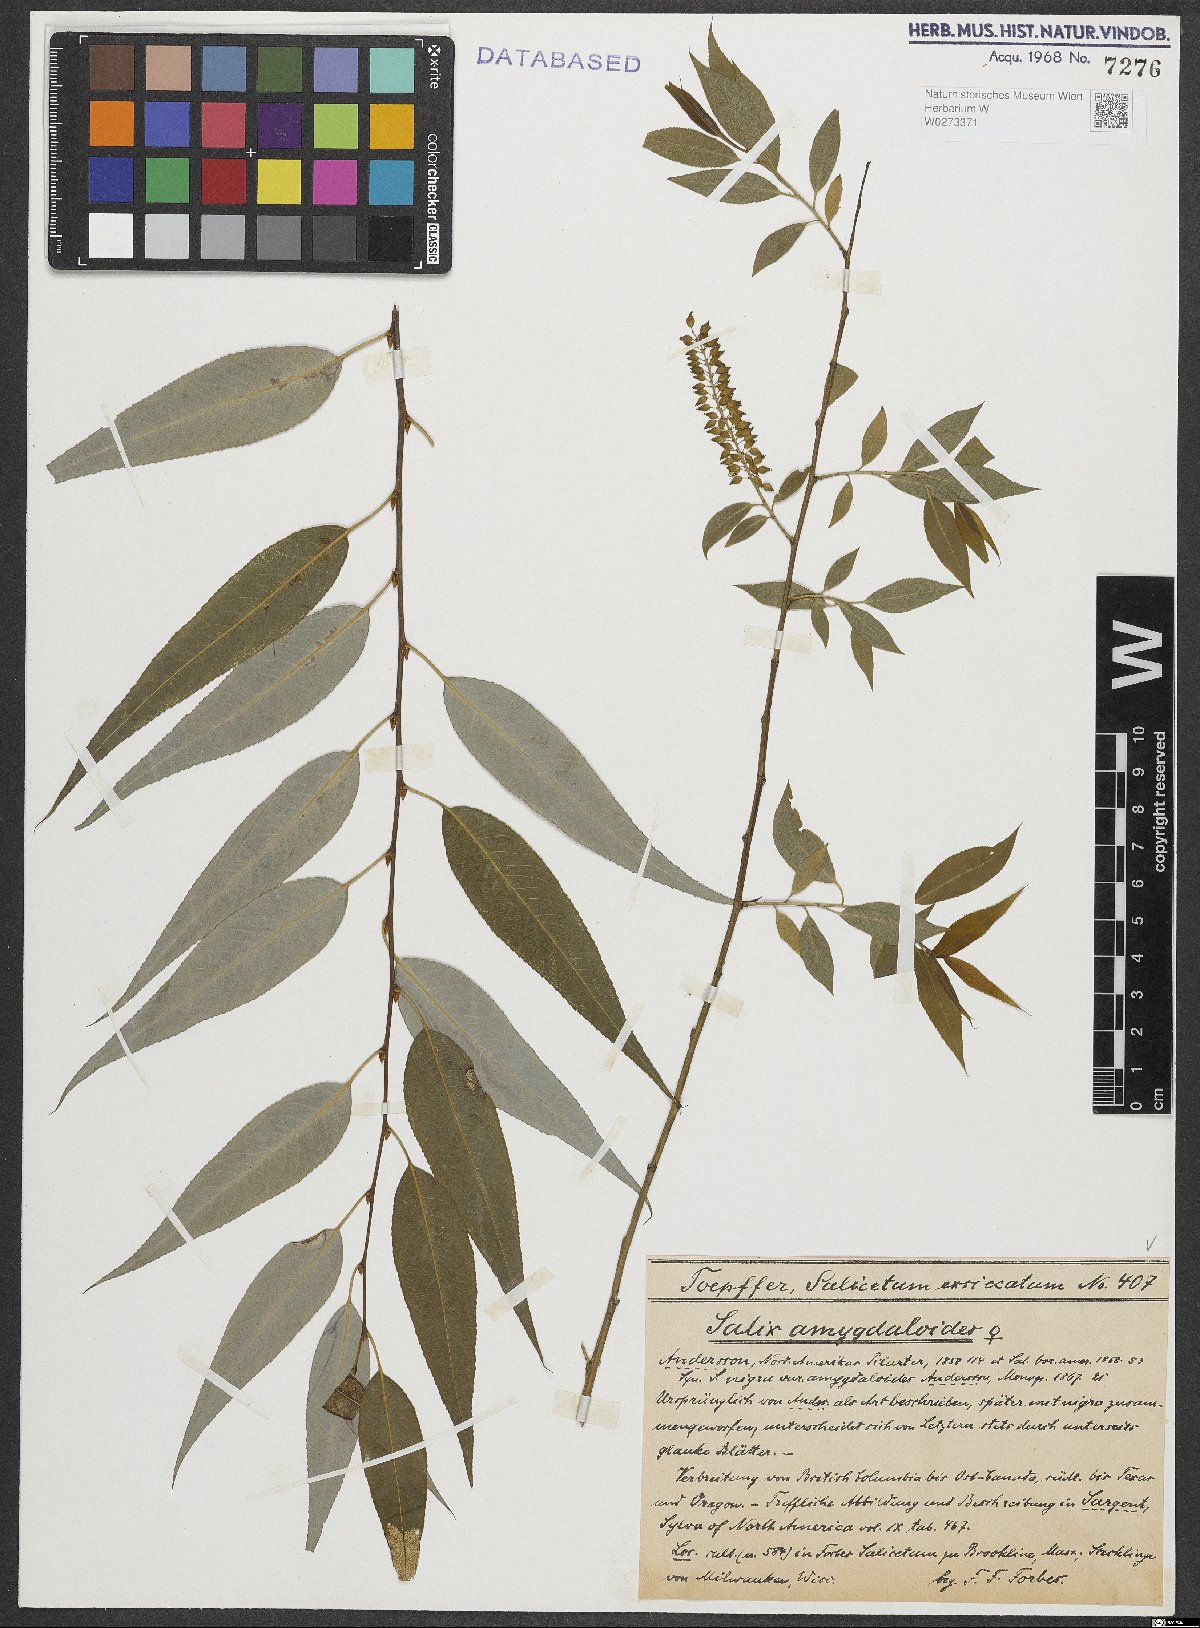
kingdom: Plantae
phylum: Tracheophyta
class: Magnoliopsida
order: Malpighiales
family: Salicaceae
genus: Salix
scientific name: Salix amygdaloides
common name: Peach leaf willow
